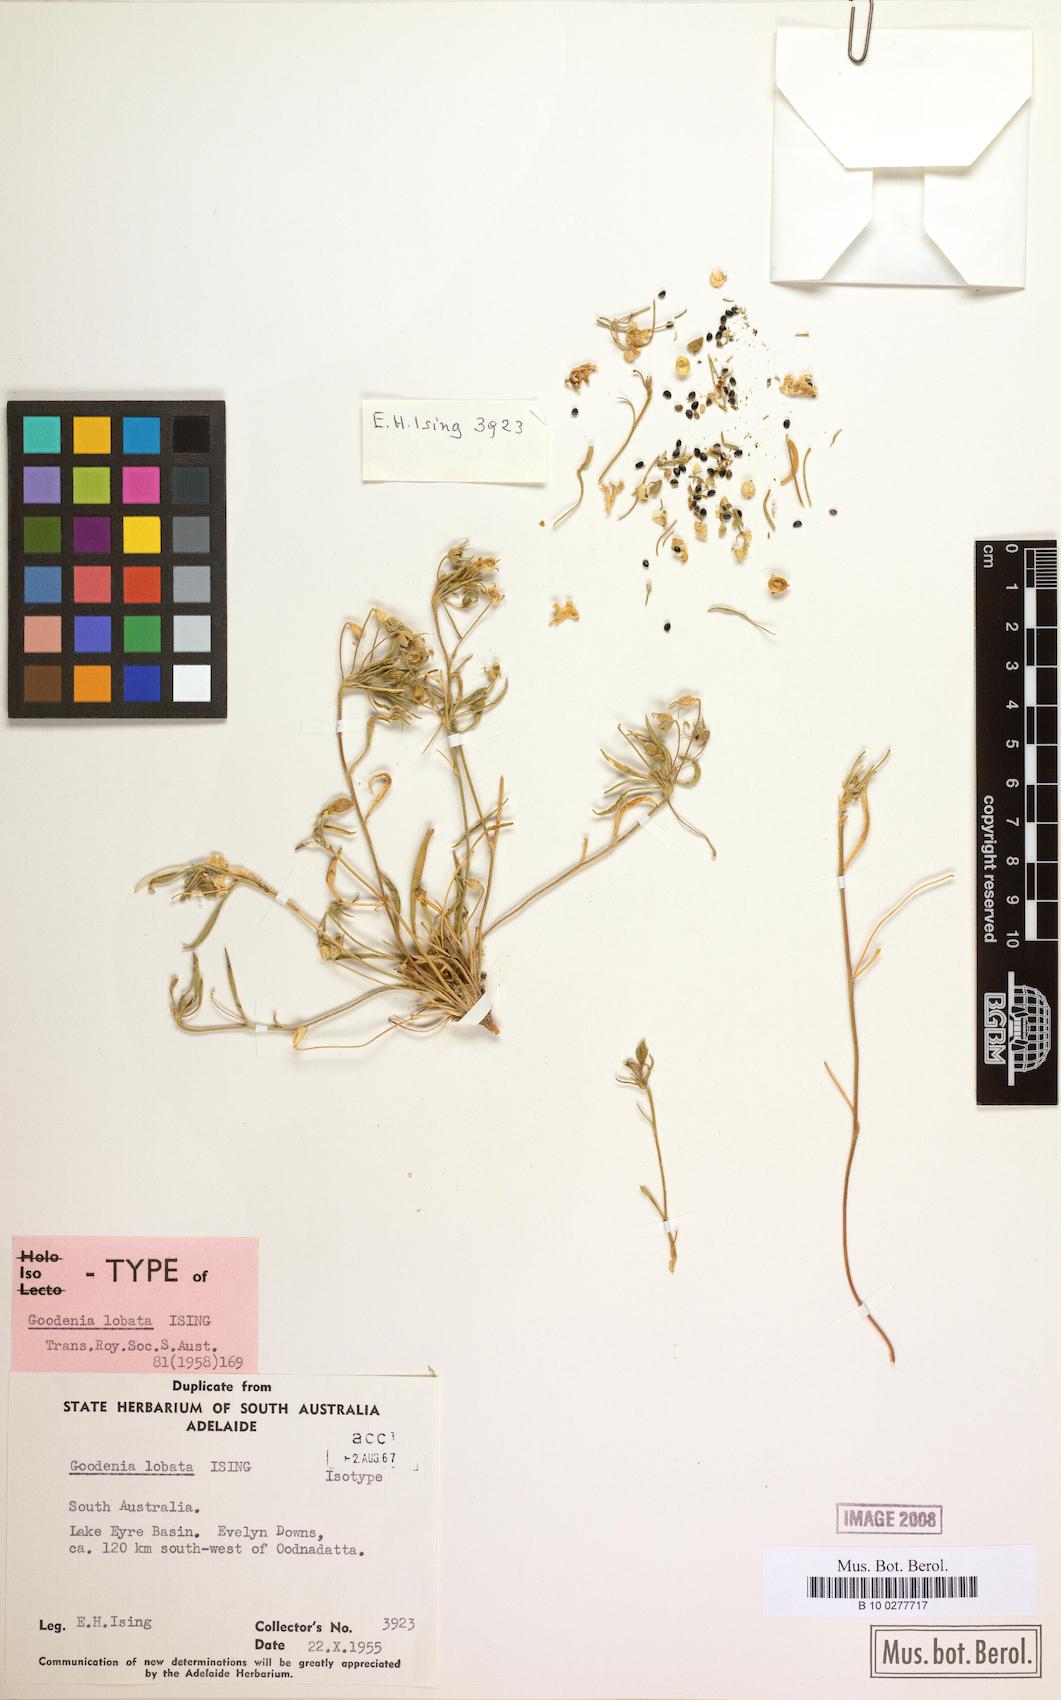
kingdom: Plantae
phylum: Tracheophyta
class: Magnoliopsida
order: Asterales
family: Goodeniaceae
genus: Goodenia
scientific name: Goodenia lobata
